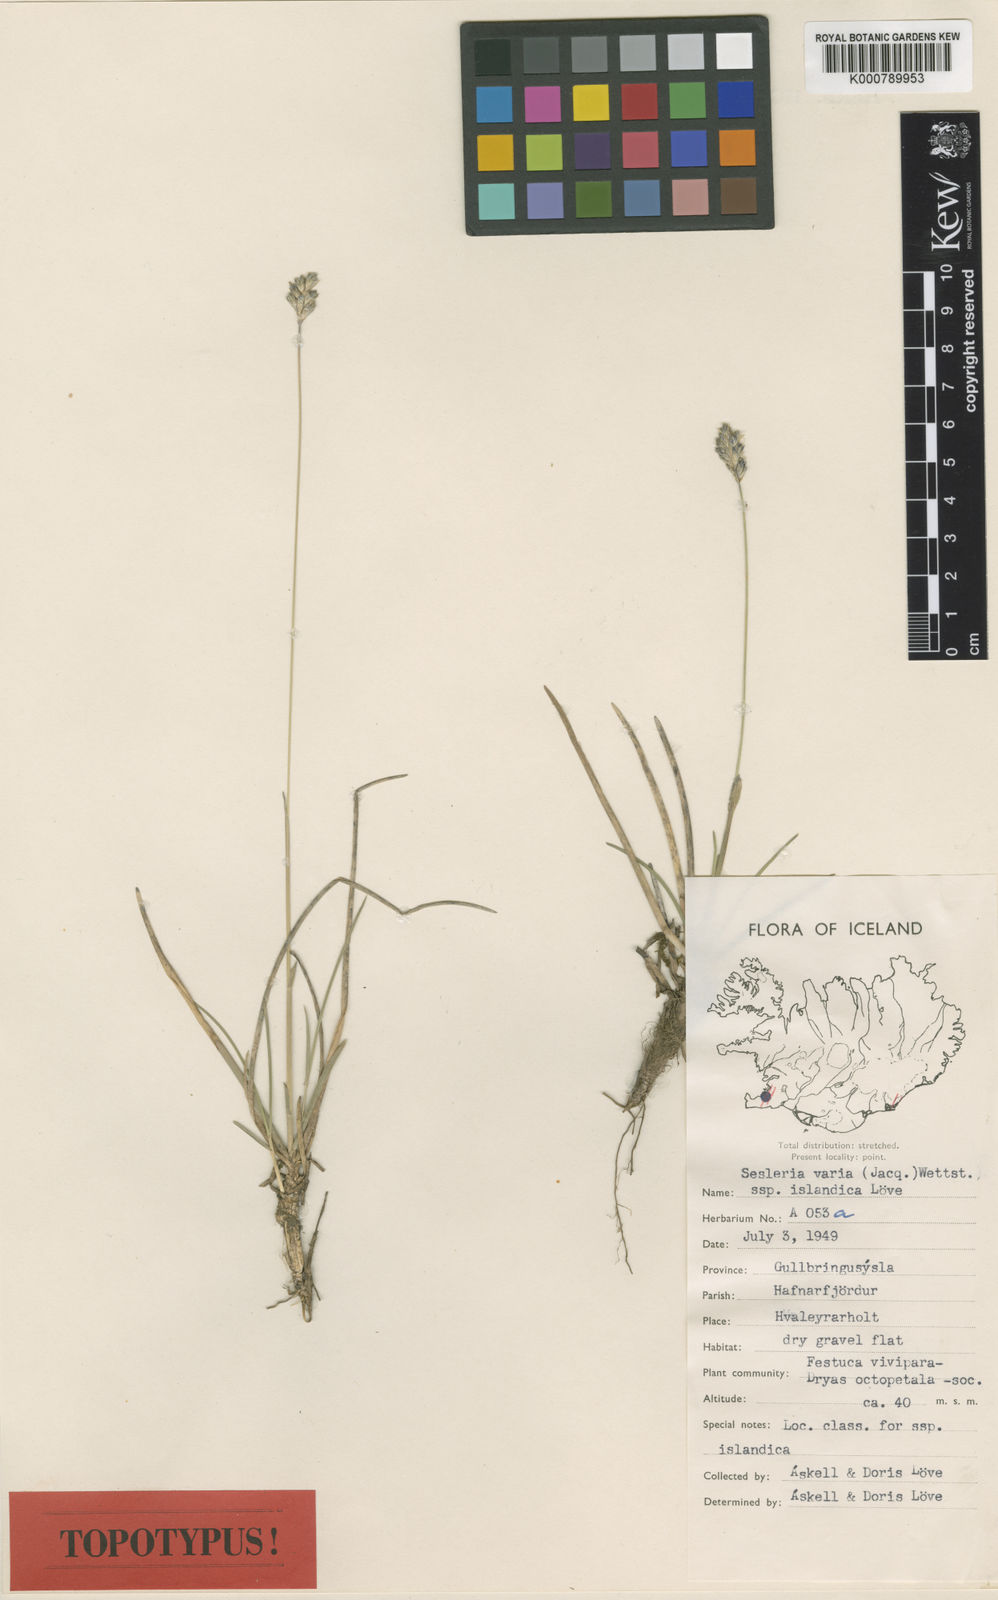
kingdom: Plantae
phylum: Tracheophyta
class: Liliopsida
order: Poales
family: Poaceae
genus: Sesleria
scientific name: Sesleria albicans
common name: Blue moor-grass
